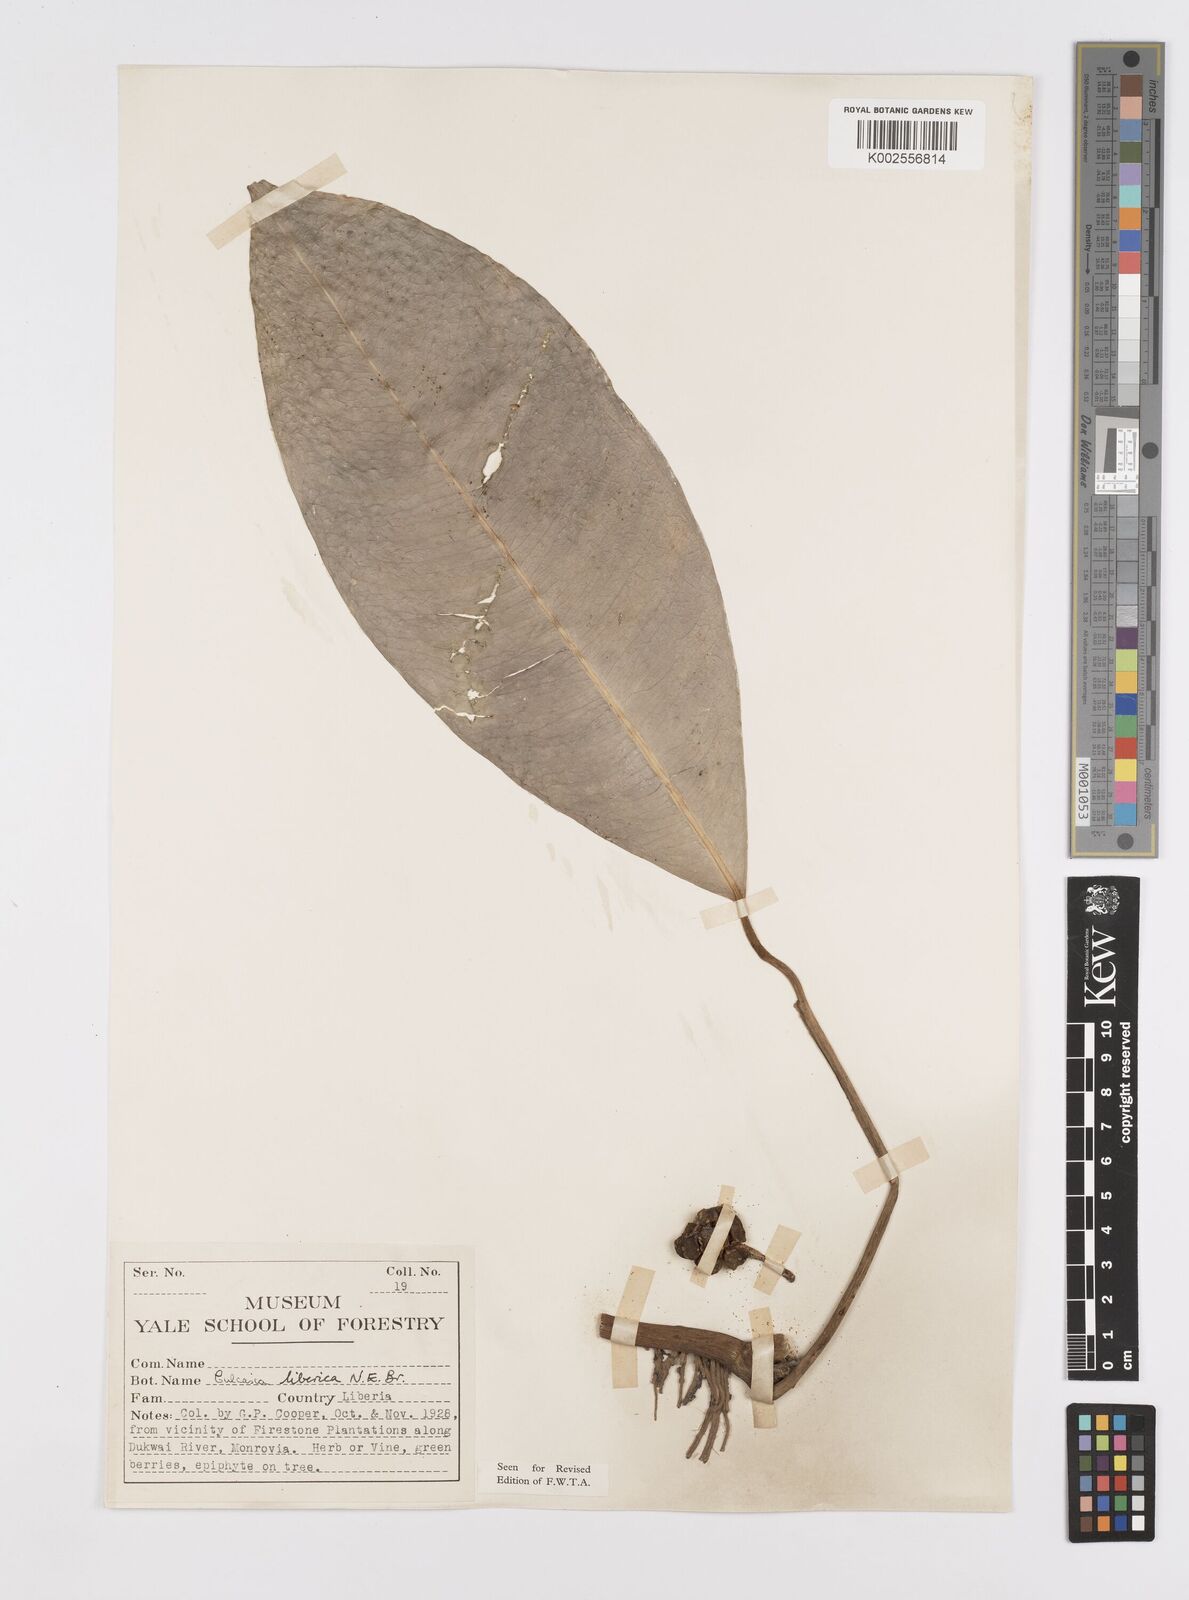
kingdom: Plantae
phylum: Tracheophyta
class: Liliopsida
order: Alismatales
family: Araceae
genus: Culcasia
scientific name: Culcasia liberica
